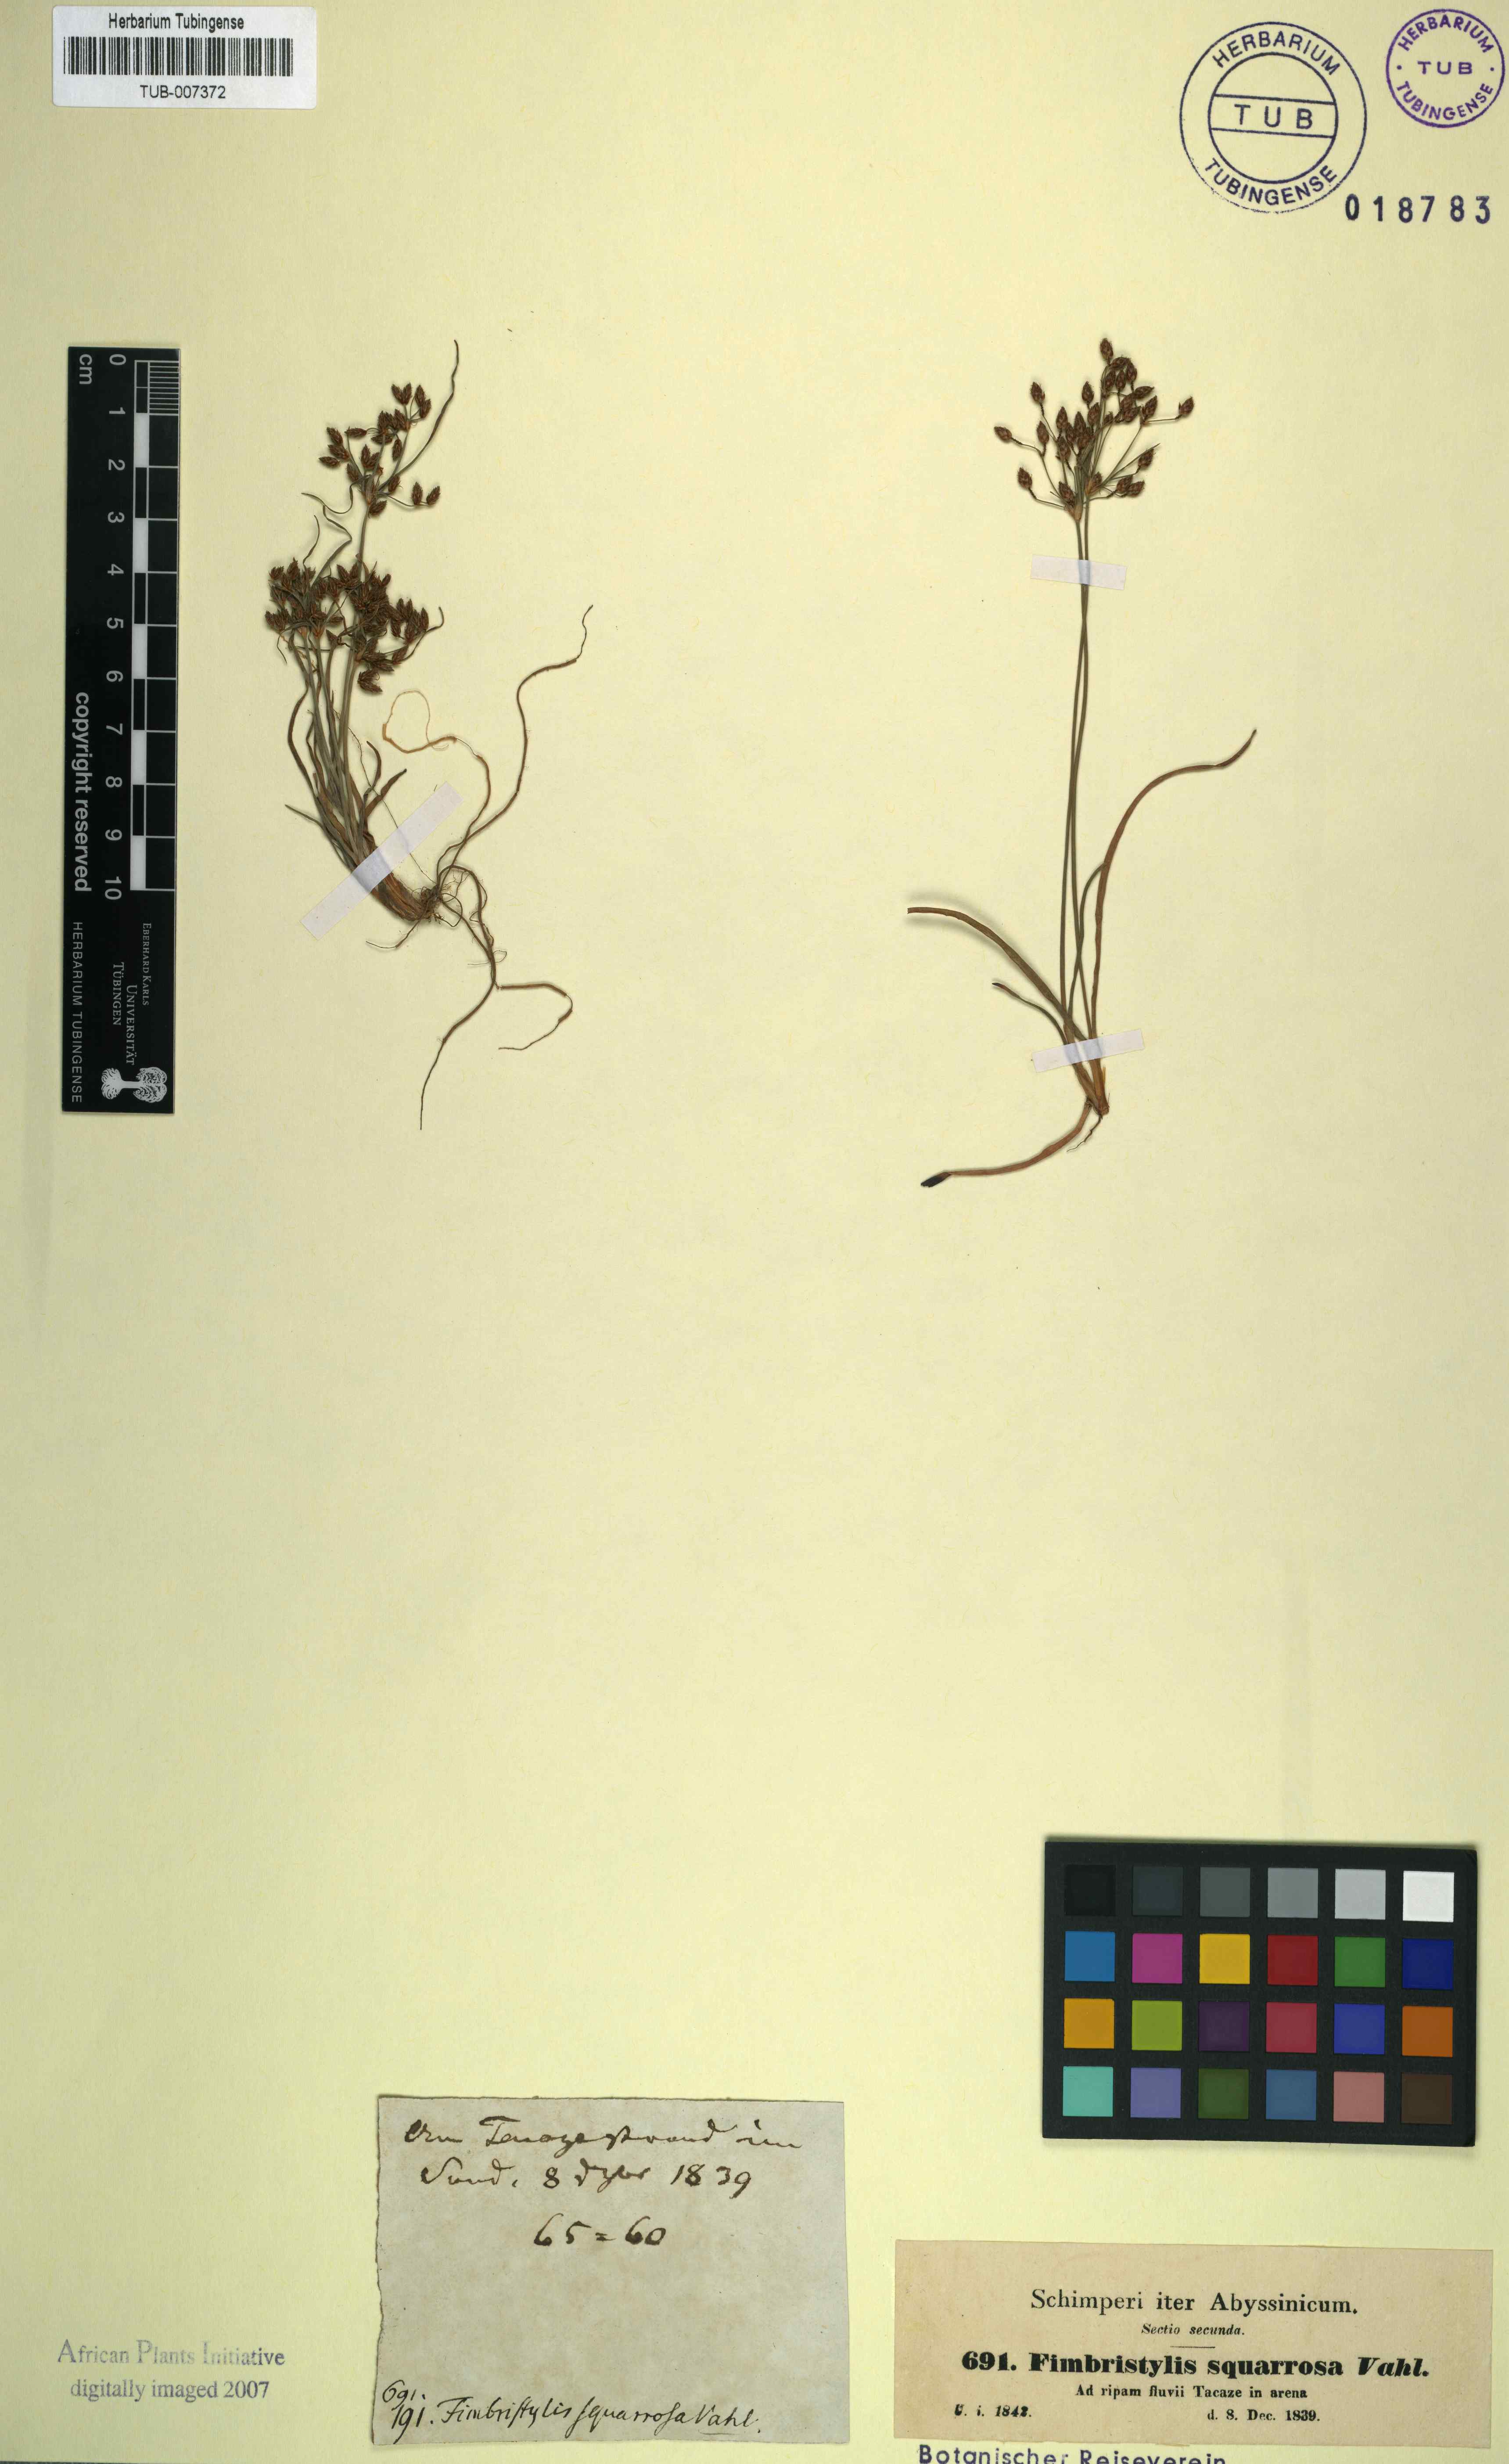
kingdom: Plantae
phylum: Tracheophyta
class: Liliopsida
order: Poales
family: Cyperaceae
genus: Fimbristylis
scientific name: Fimbristylis squarrosa
